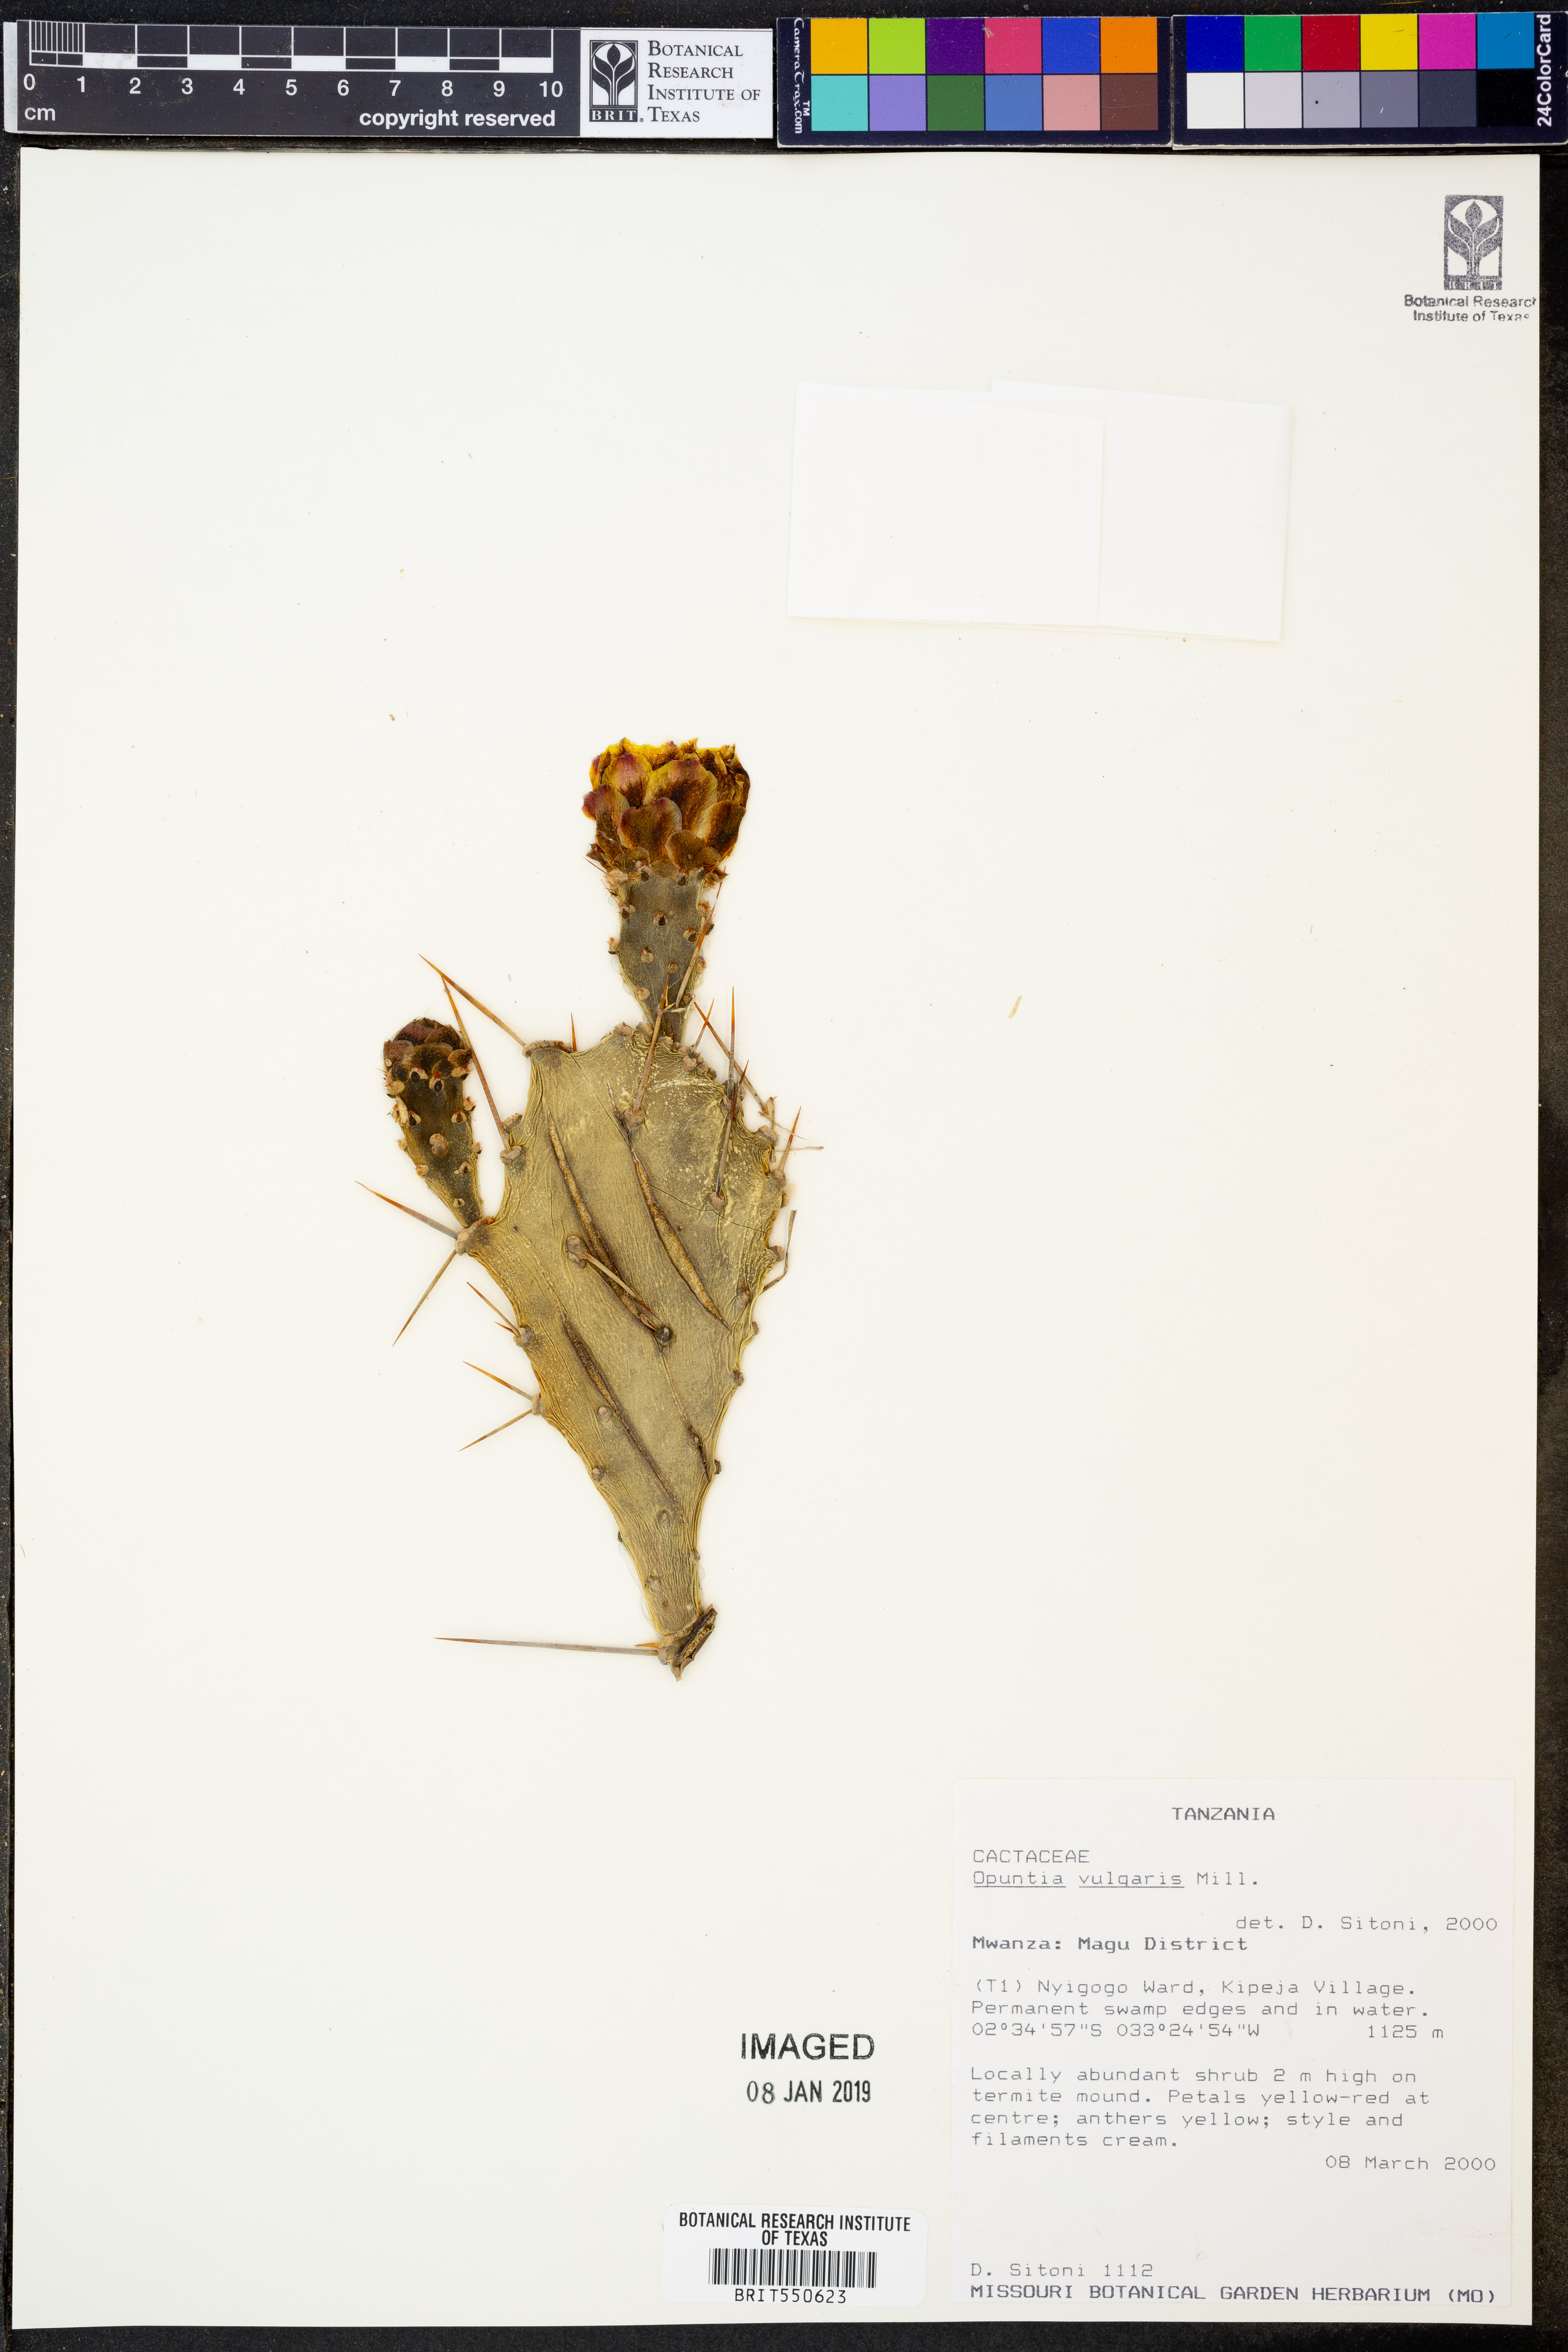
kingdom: Plantae
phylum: Tracheophyta
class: Magnoliopsida
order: Caryophyllales
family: Cactaceae
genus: Opuntia
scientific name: Opuntia humifusa
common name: Eastern prickly-pear
